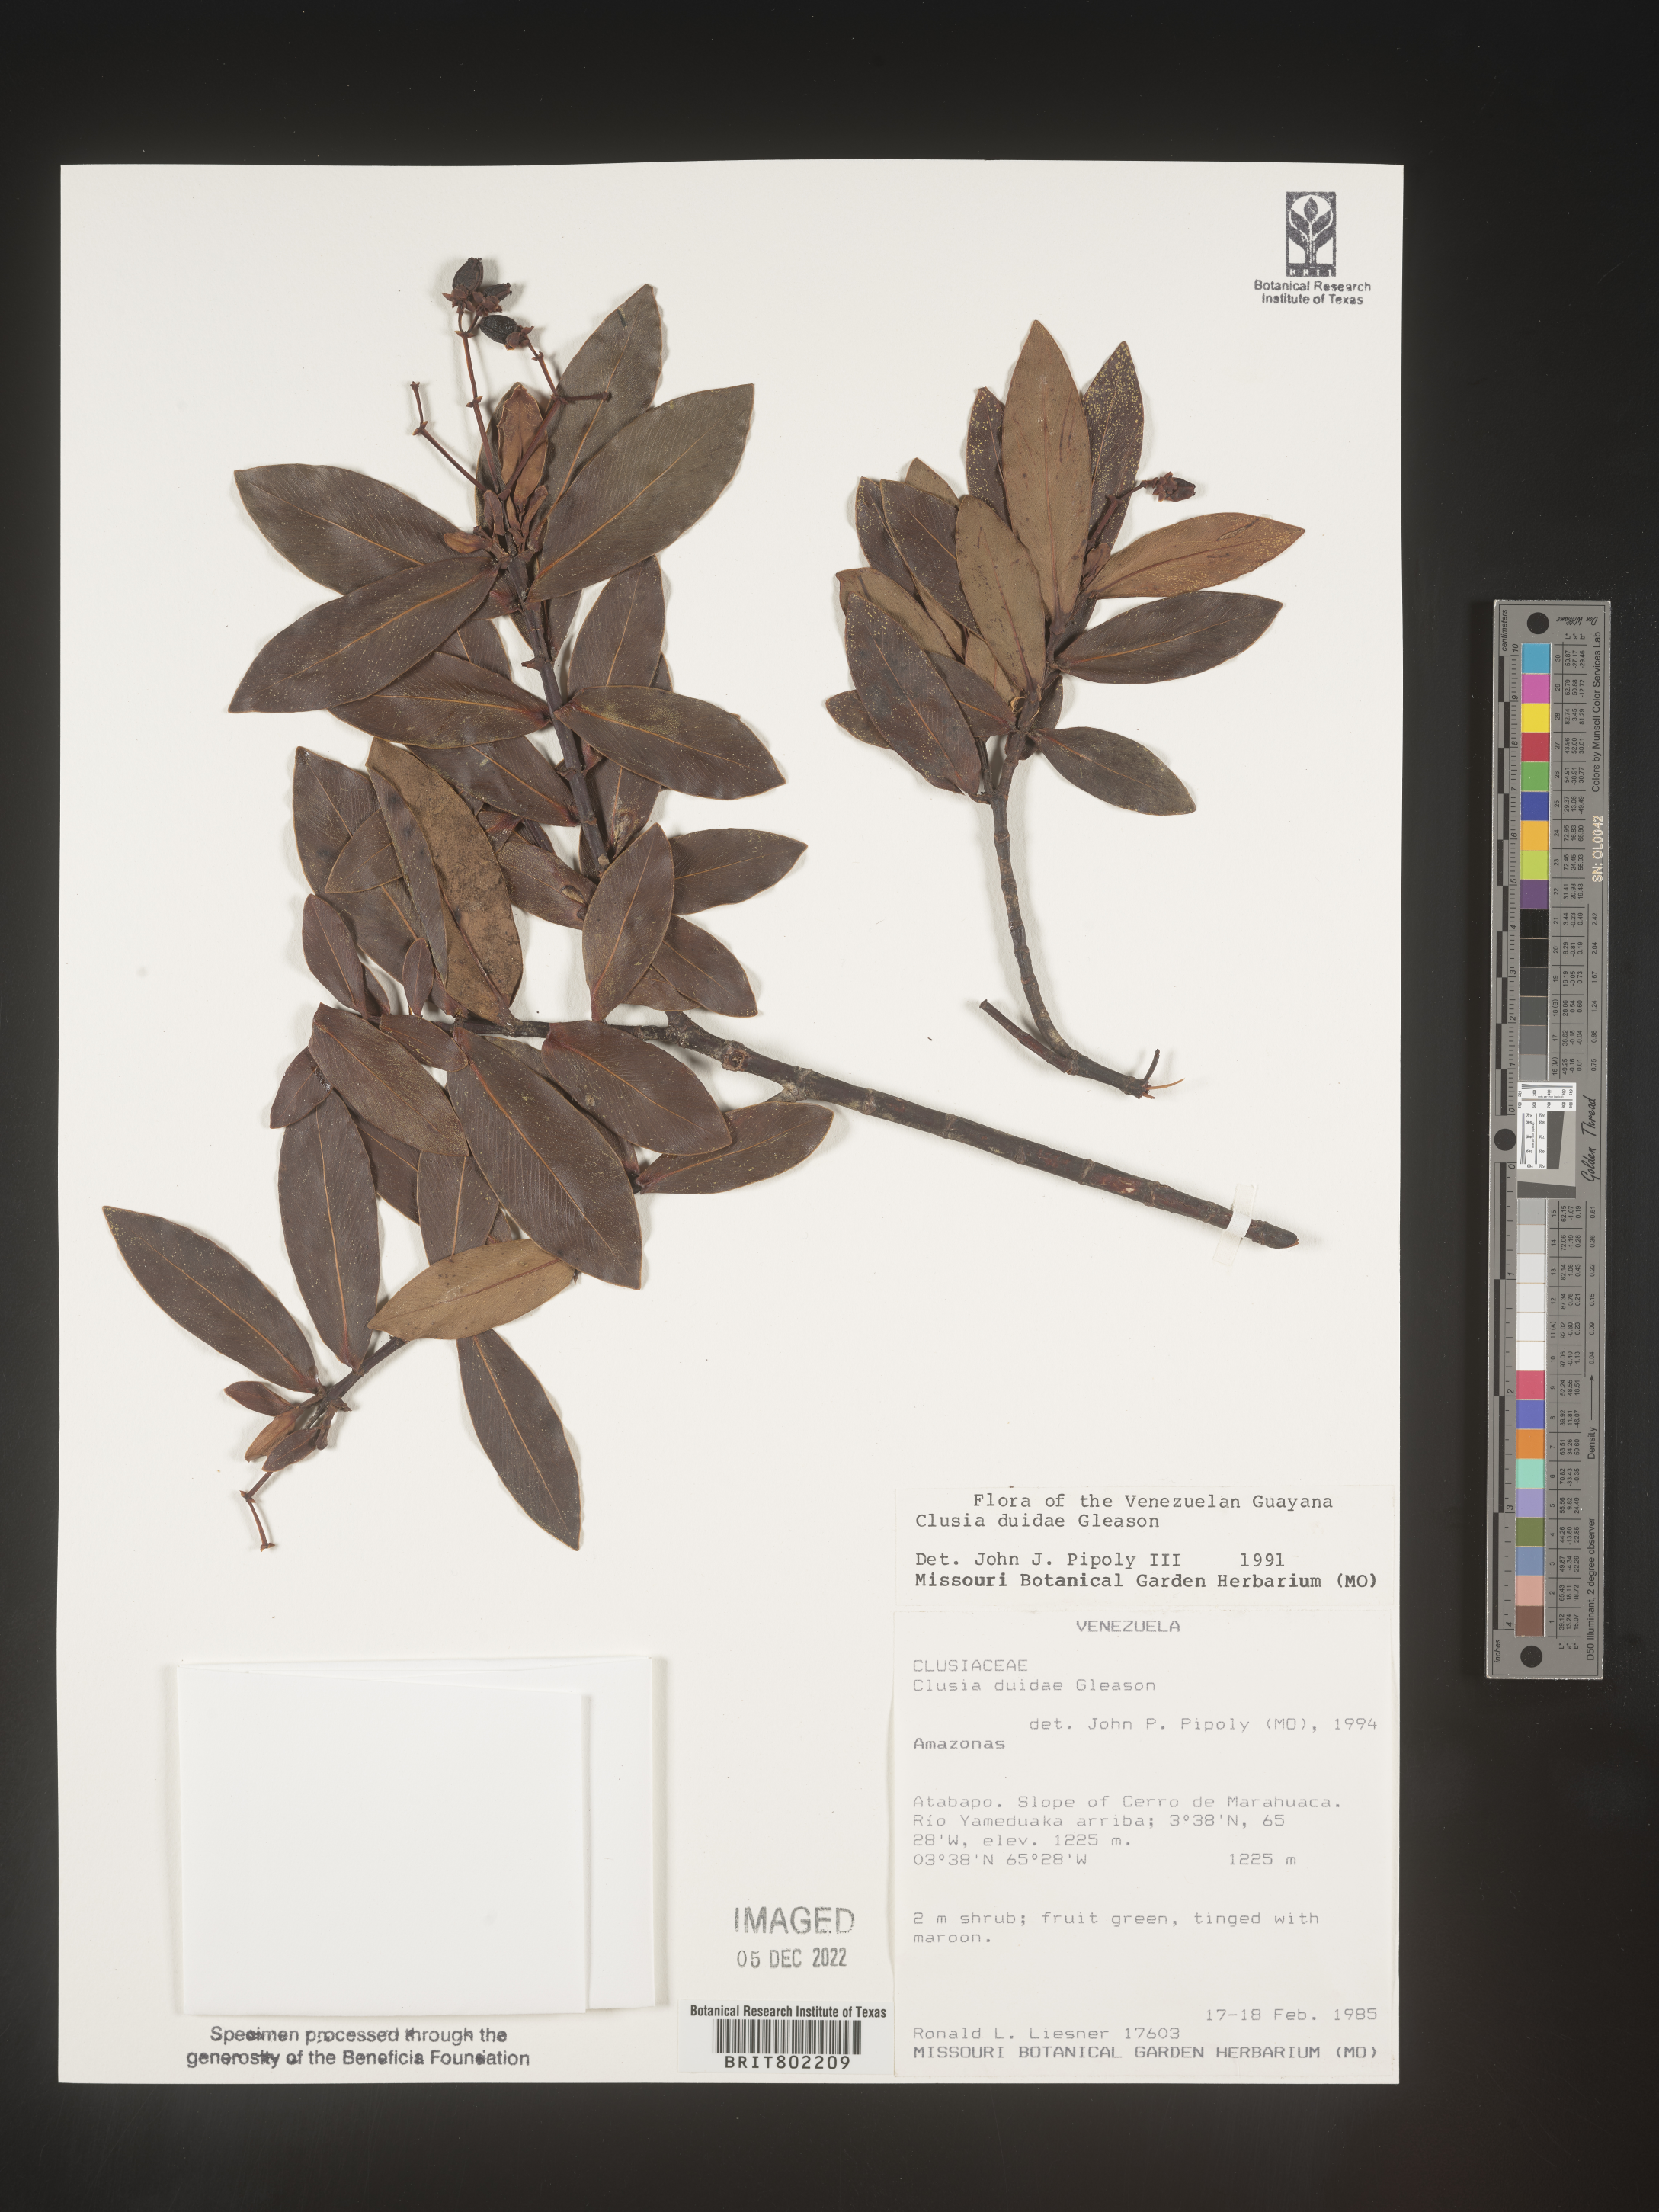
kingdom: Plantae
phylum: Tracheophyta
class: Magnoliopsida
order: Malpighiales
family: Clusiaceae
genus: Clusia
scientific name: Clusia
